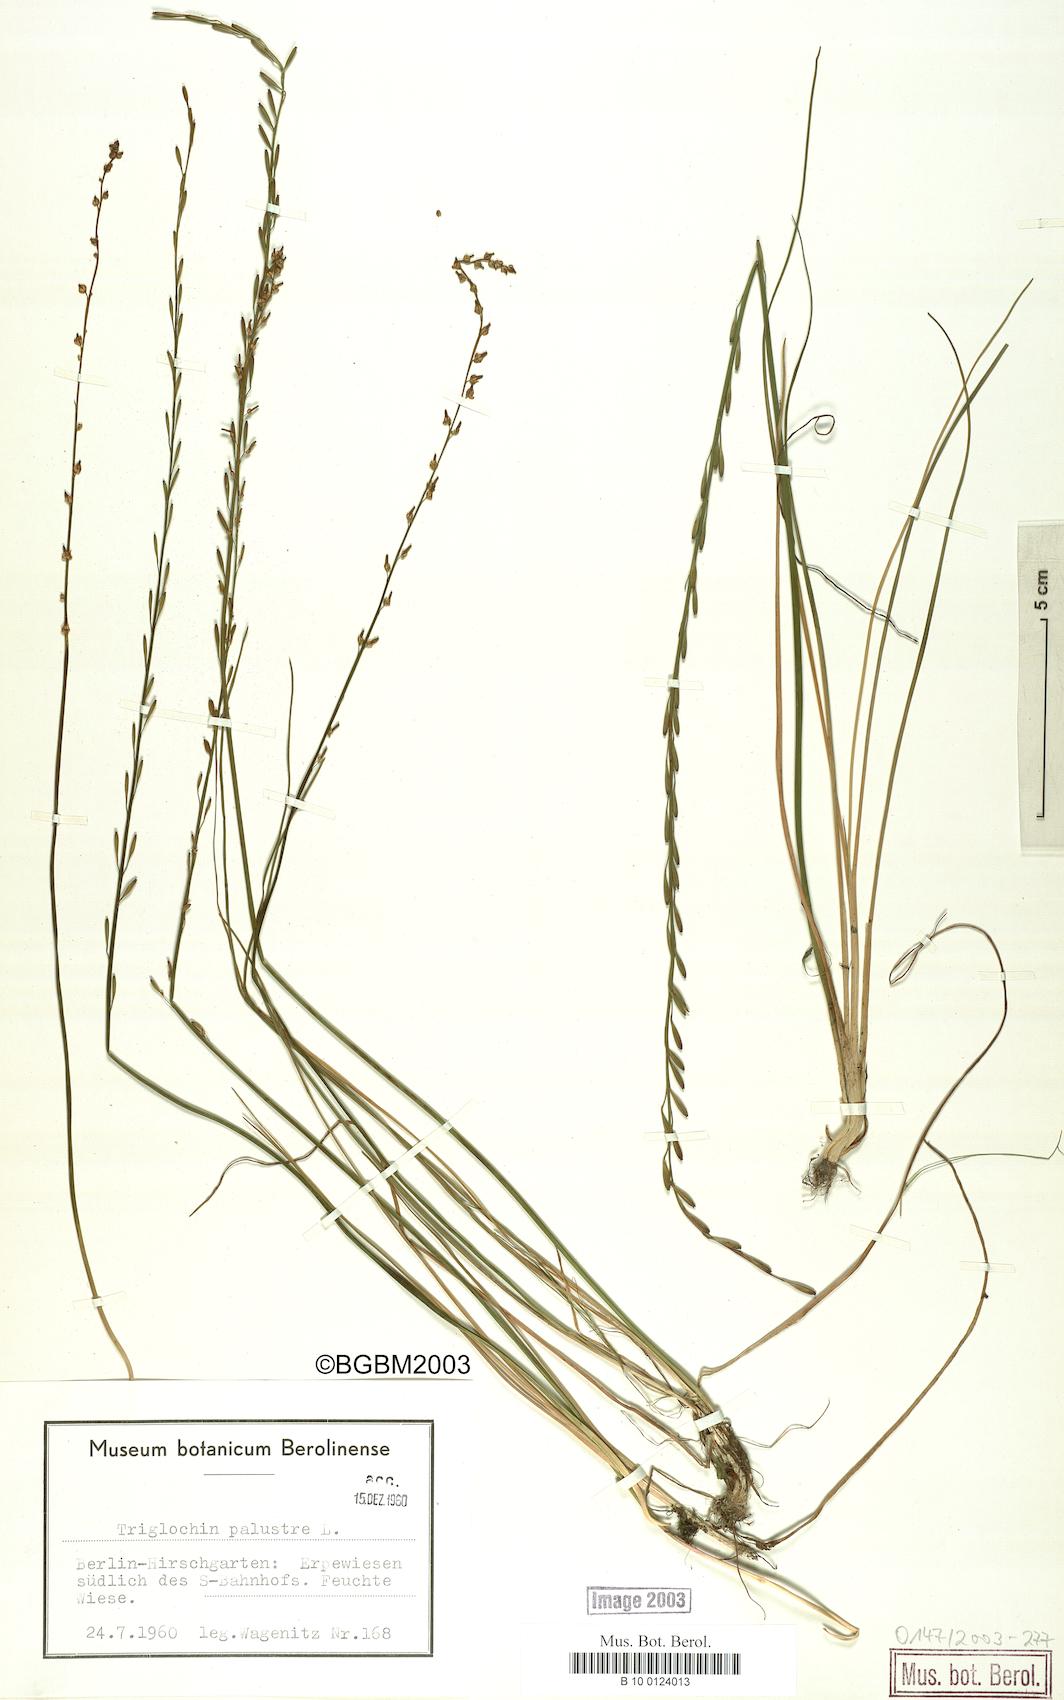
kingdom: Plantae
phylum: Tracheophyta
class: Liliopsida
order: Alismatales
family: Juncaginaceae
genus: Triglochin
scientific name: Triglochin palustris
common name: Marsh arrowgrass
